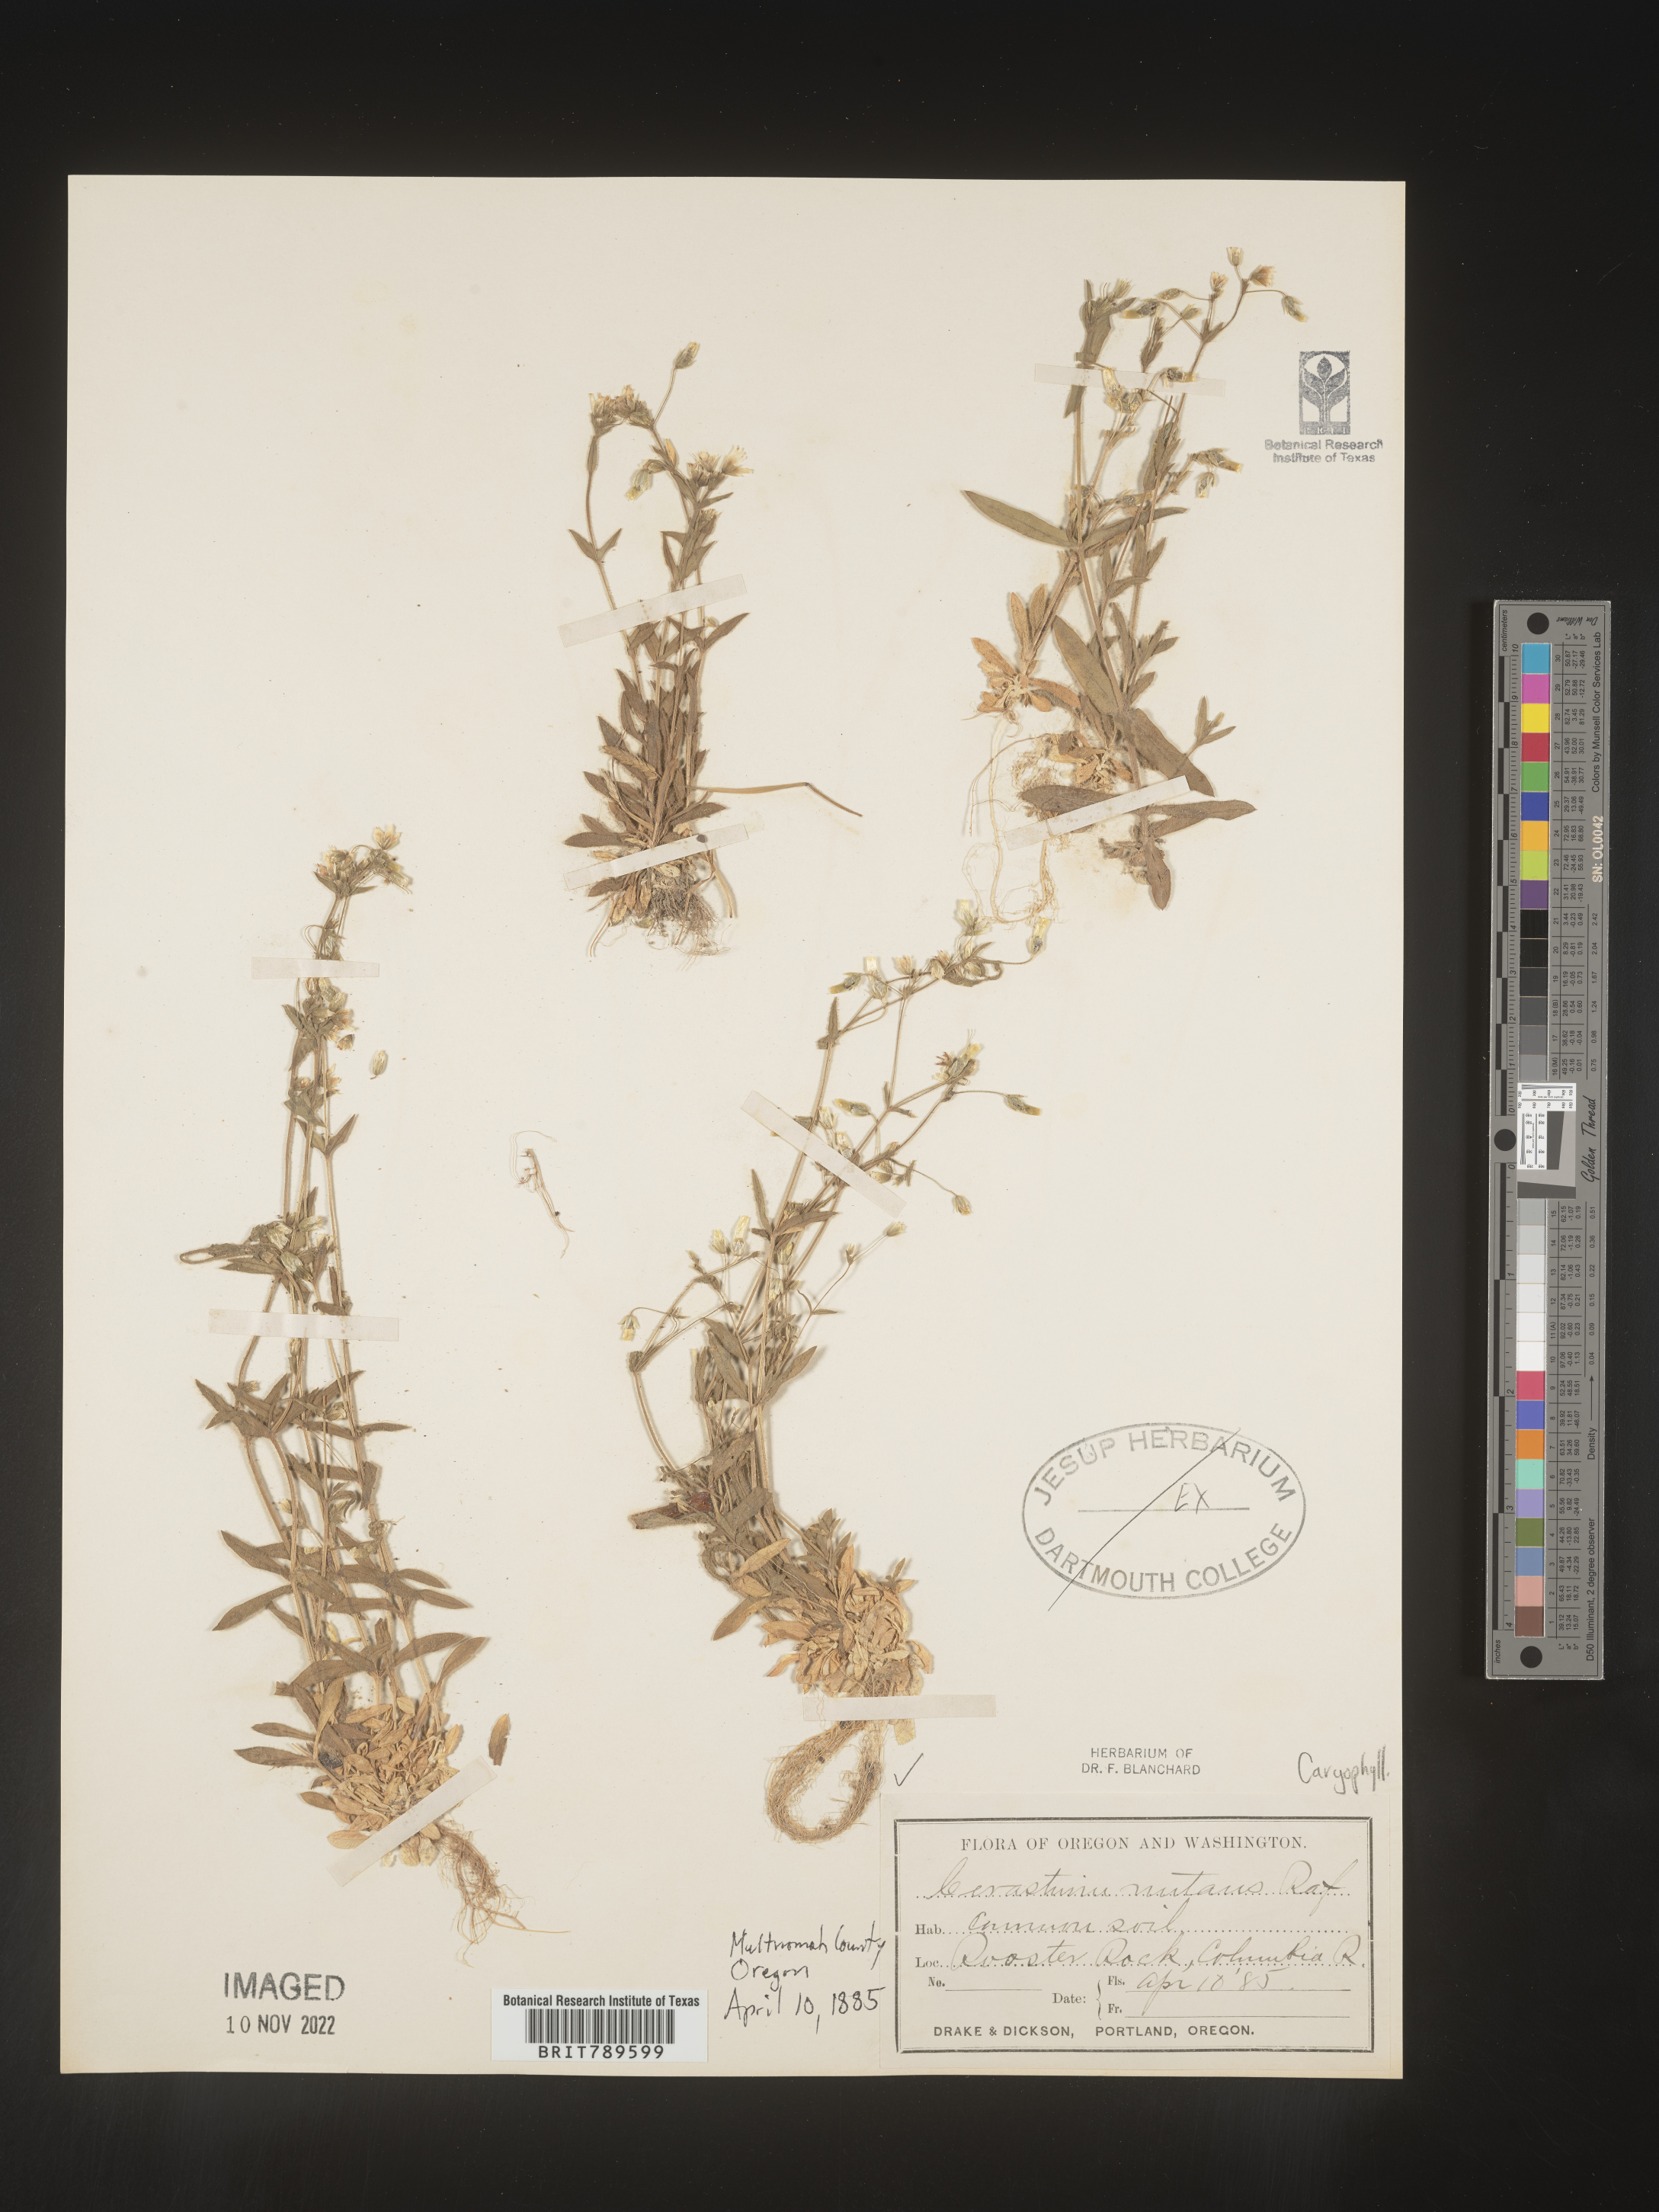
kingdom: Plantae
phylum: Tracheophyta
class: Magnoliopsida
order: Caryophyllales
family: Caryophyllaceae
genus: Cerastium
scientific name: Cerastium nutans
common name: Long-stalked chickweed
